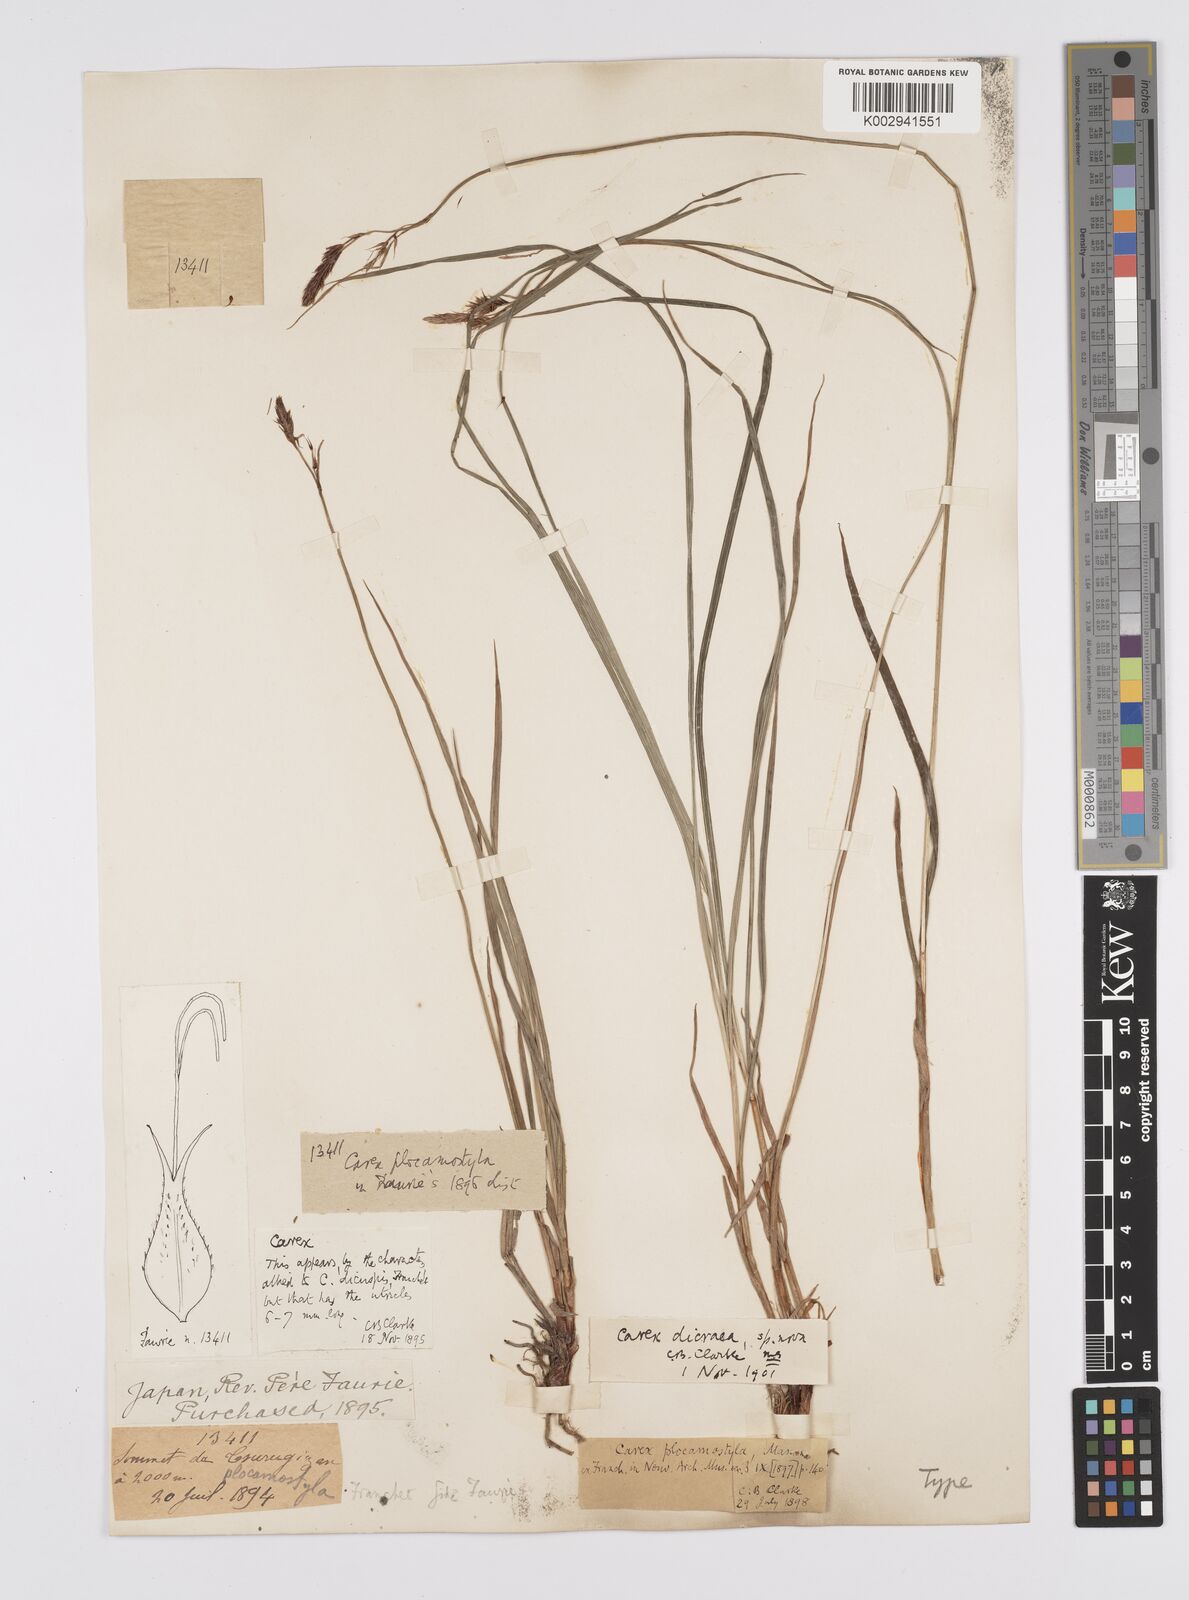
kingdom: Plantae
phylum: Tracheophyta
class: Liliopsida
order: Poales
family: Cyperaceae
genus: Carex
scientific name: Carex doenitzii
